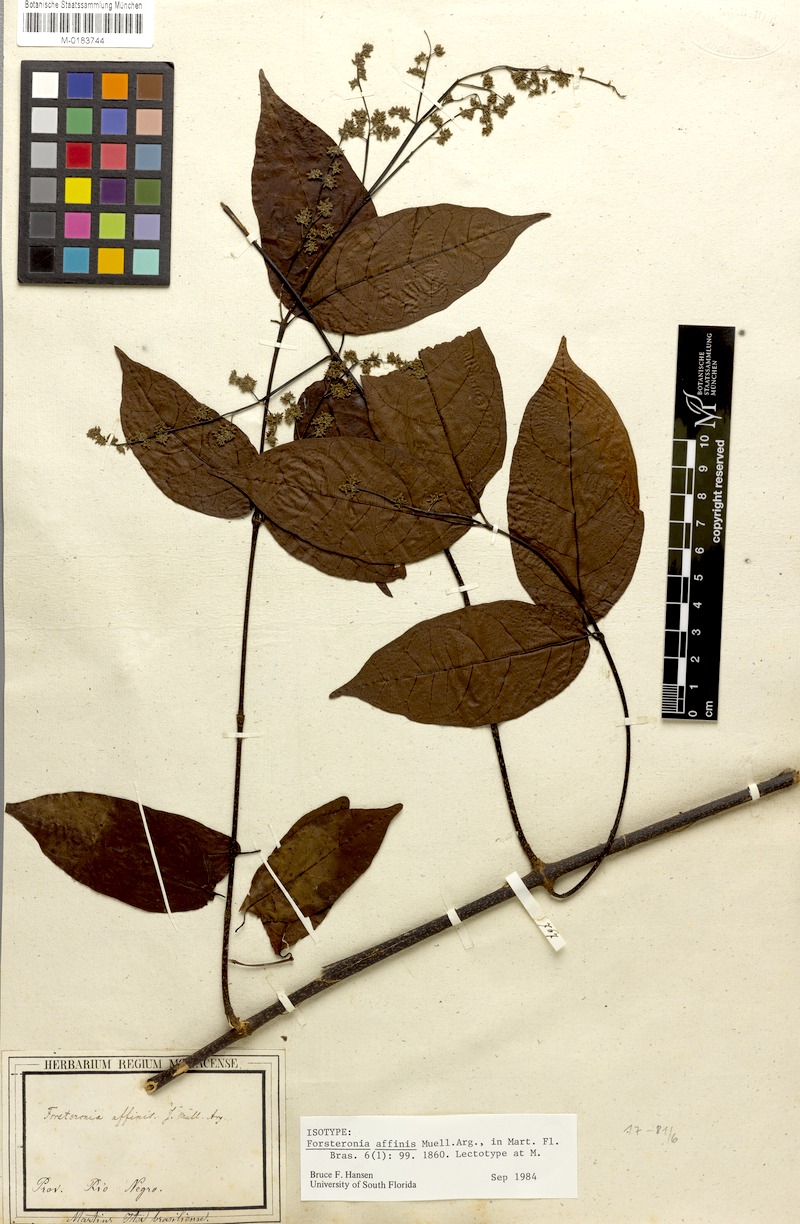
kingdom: Plantae
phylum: Tracheophyta
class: Magnoliopsida
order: Gentianales
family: Apocynaceae
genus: Forsteronia
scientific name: Forsteronia affinis
